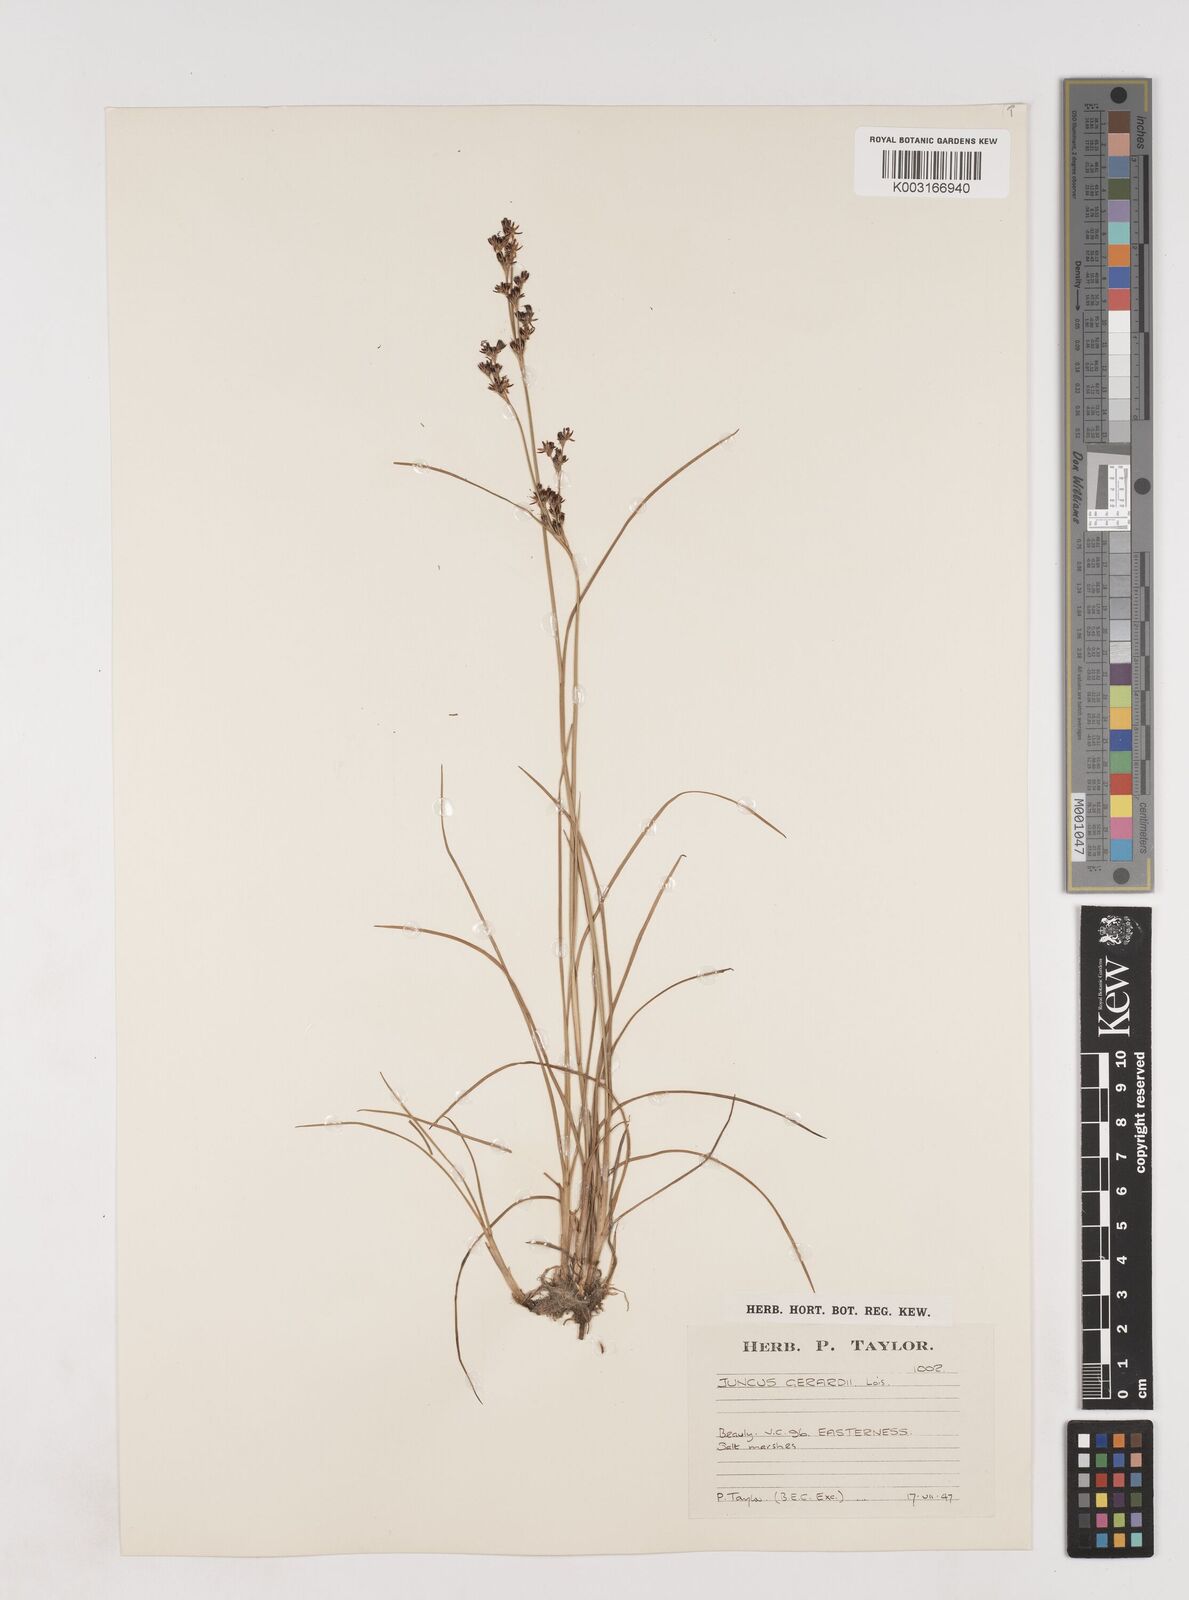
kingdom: Plantae
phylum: Tracheophyta
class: Liliopsida
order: Poales
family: Juncaceae
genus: Juncus
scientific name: Juncus gerardi
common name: Saltmarsh rush
